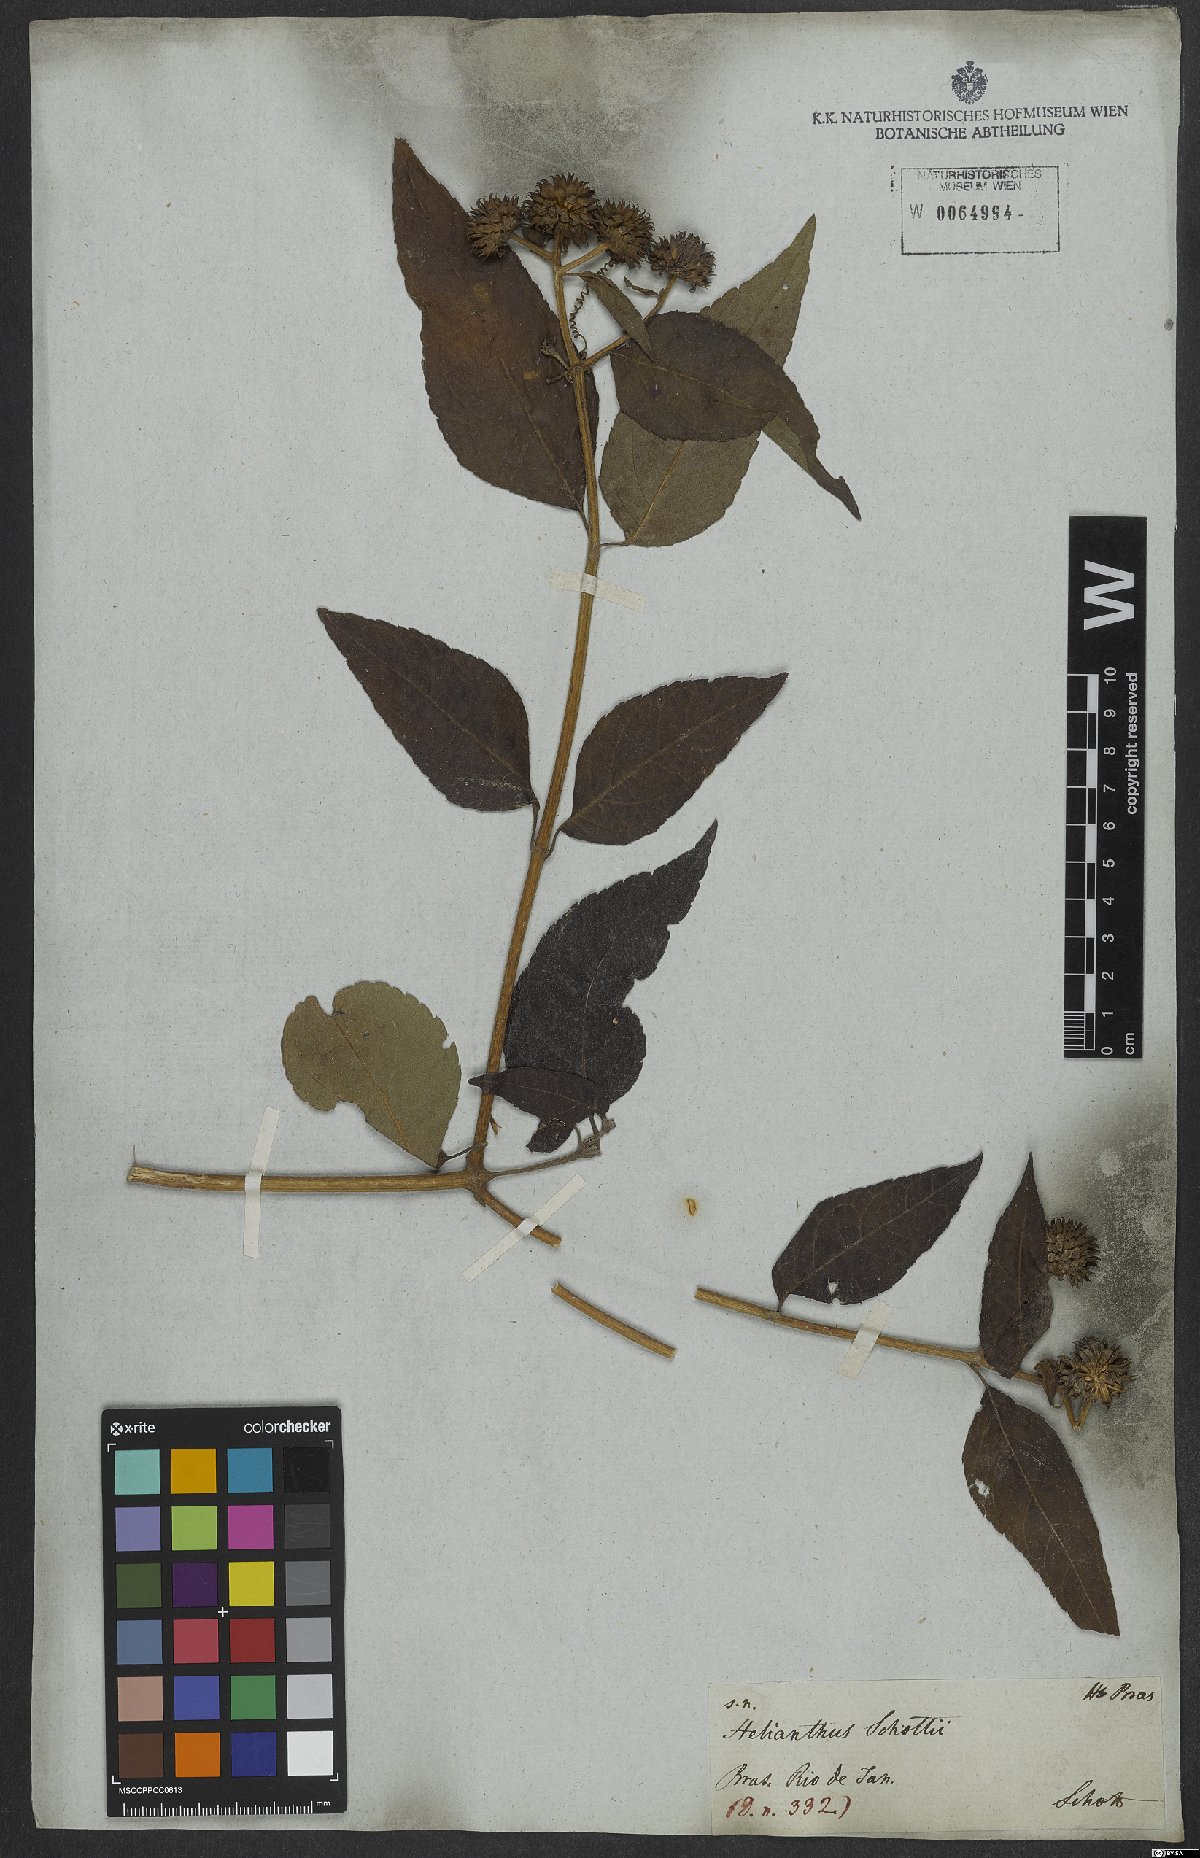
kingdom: Plantae
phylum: Tracheophyta
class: Magnoliopsida
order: Asterales
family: Asteraceae
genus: Tilesia
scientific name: Tilesia baccata
